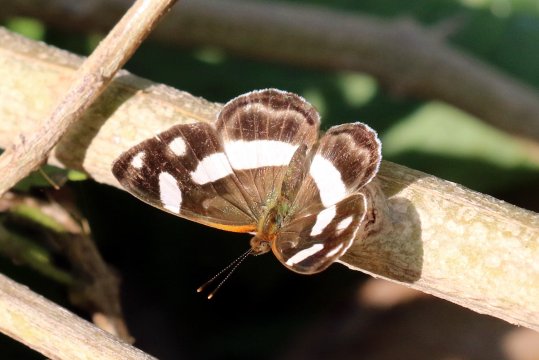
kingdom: Animalia
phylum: Arthropoda
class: Insecta
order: Lepidoptera
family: Nymphalidae
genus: Dynamine
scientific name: Dynamine dyonis
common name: Blue-eyed Sailor
